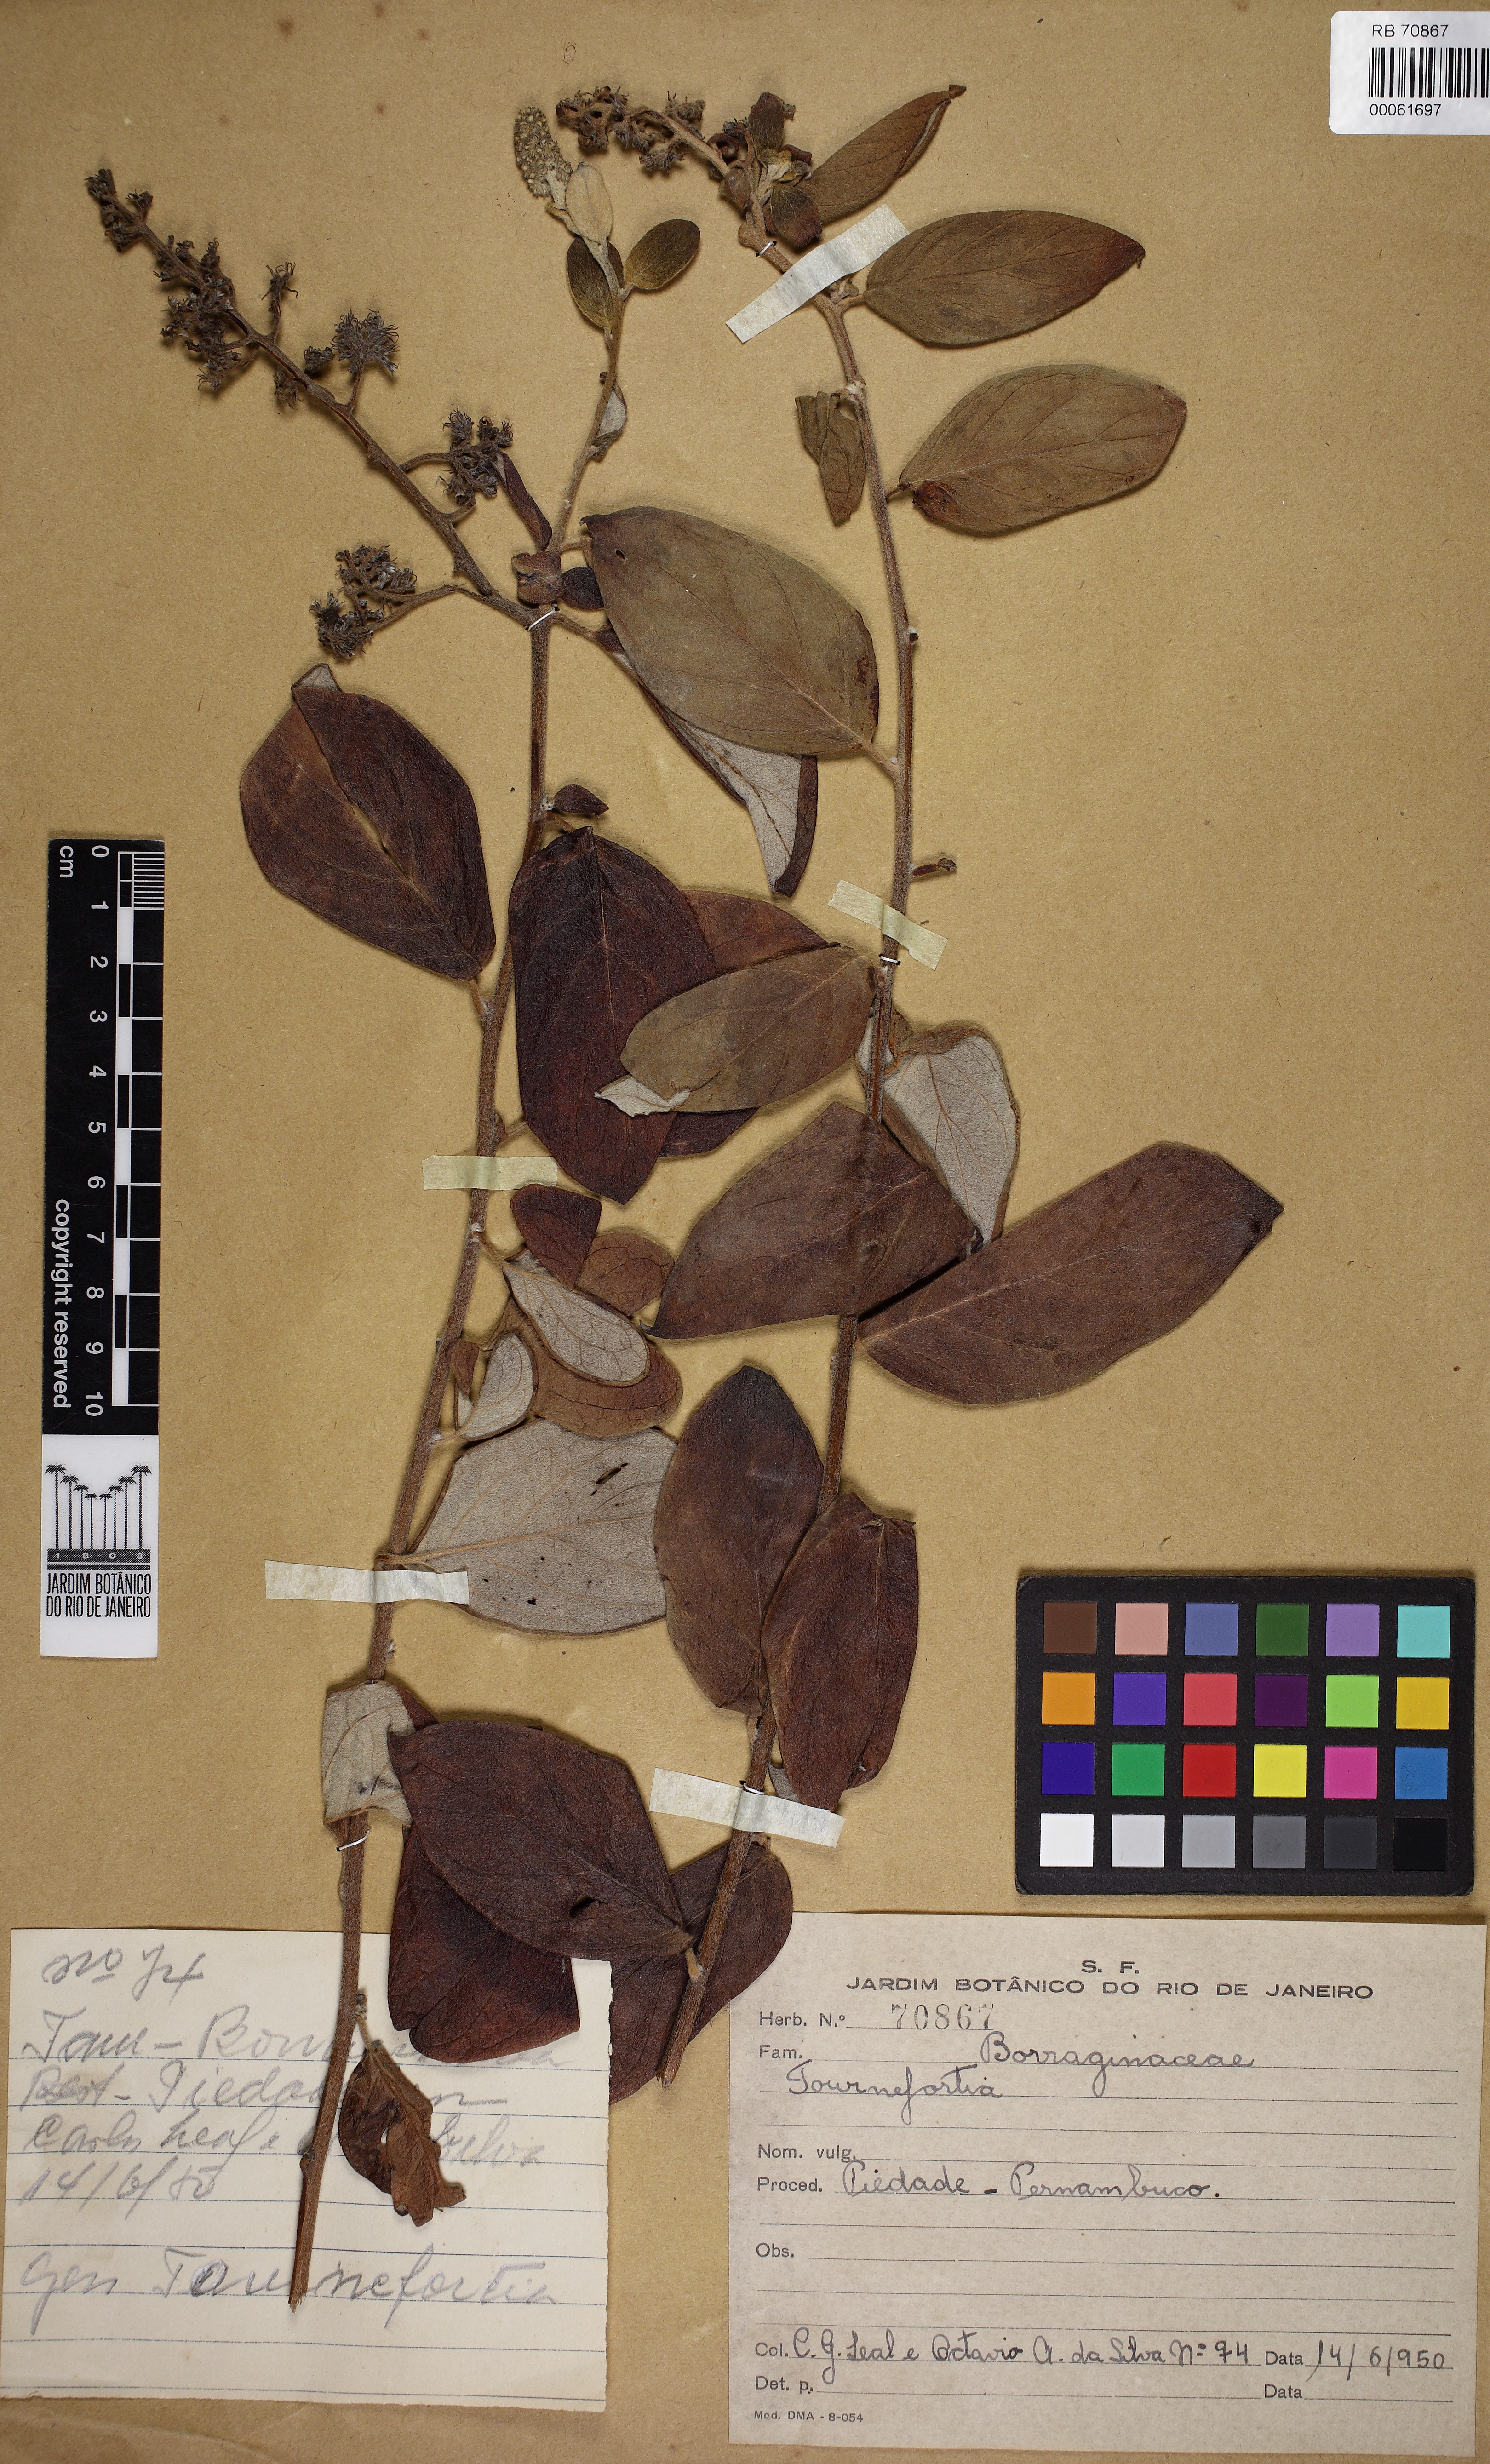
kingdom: Plantae
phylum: Tracheophyta
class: Magnoliopsida
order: Boraginales
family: Heliotropiaceae
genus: Myriopus
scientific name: Myriopus candidulus
